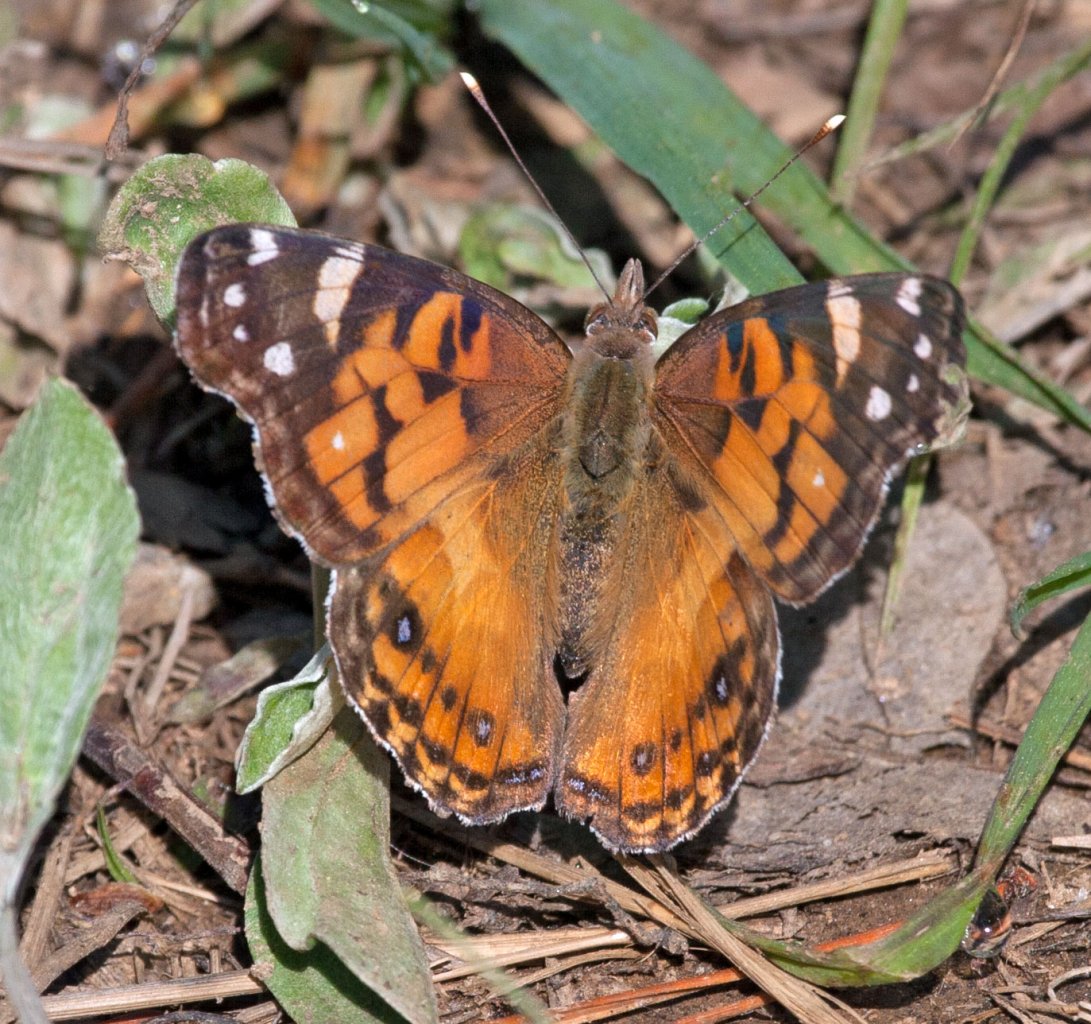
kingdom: Animalia
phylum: Arthropoda
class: Insecta
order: Lepidoptera
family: Nymphalidae
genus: Vanessa
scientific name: Vanessa virginiensis
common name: American Lady
